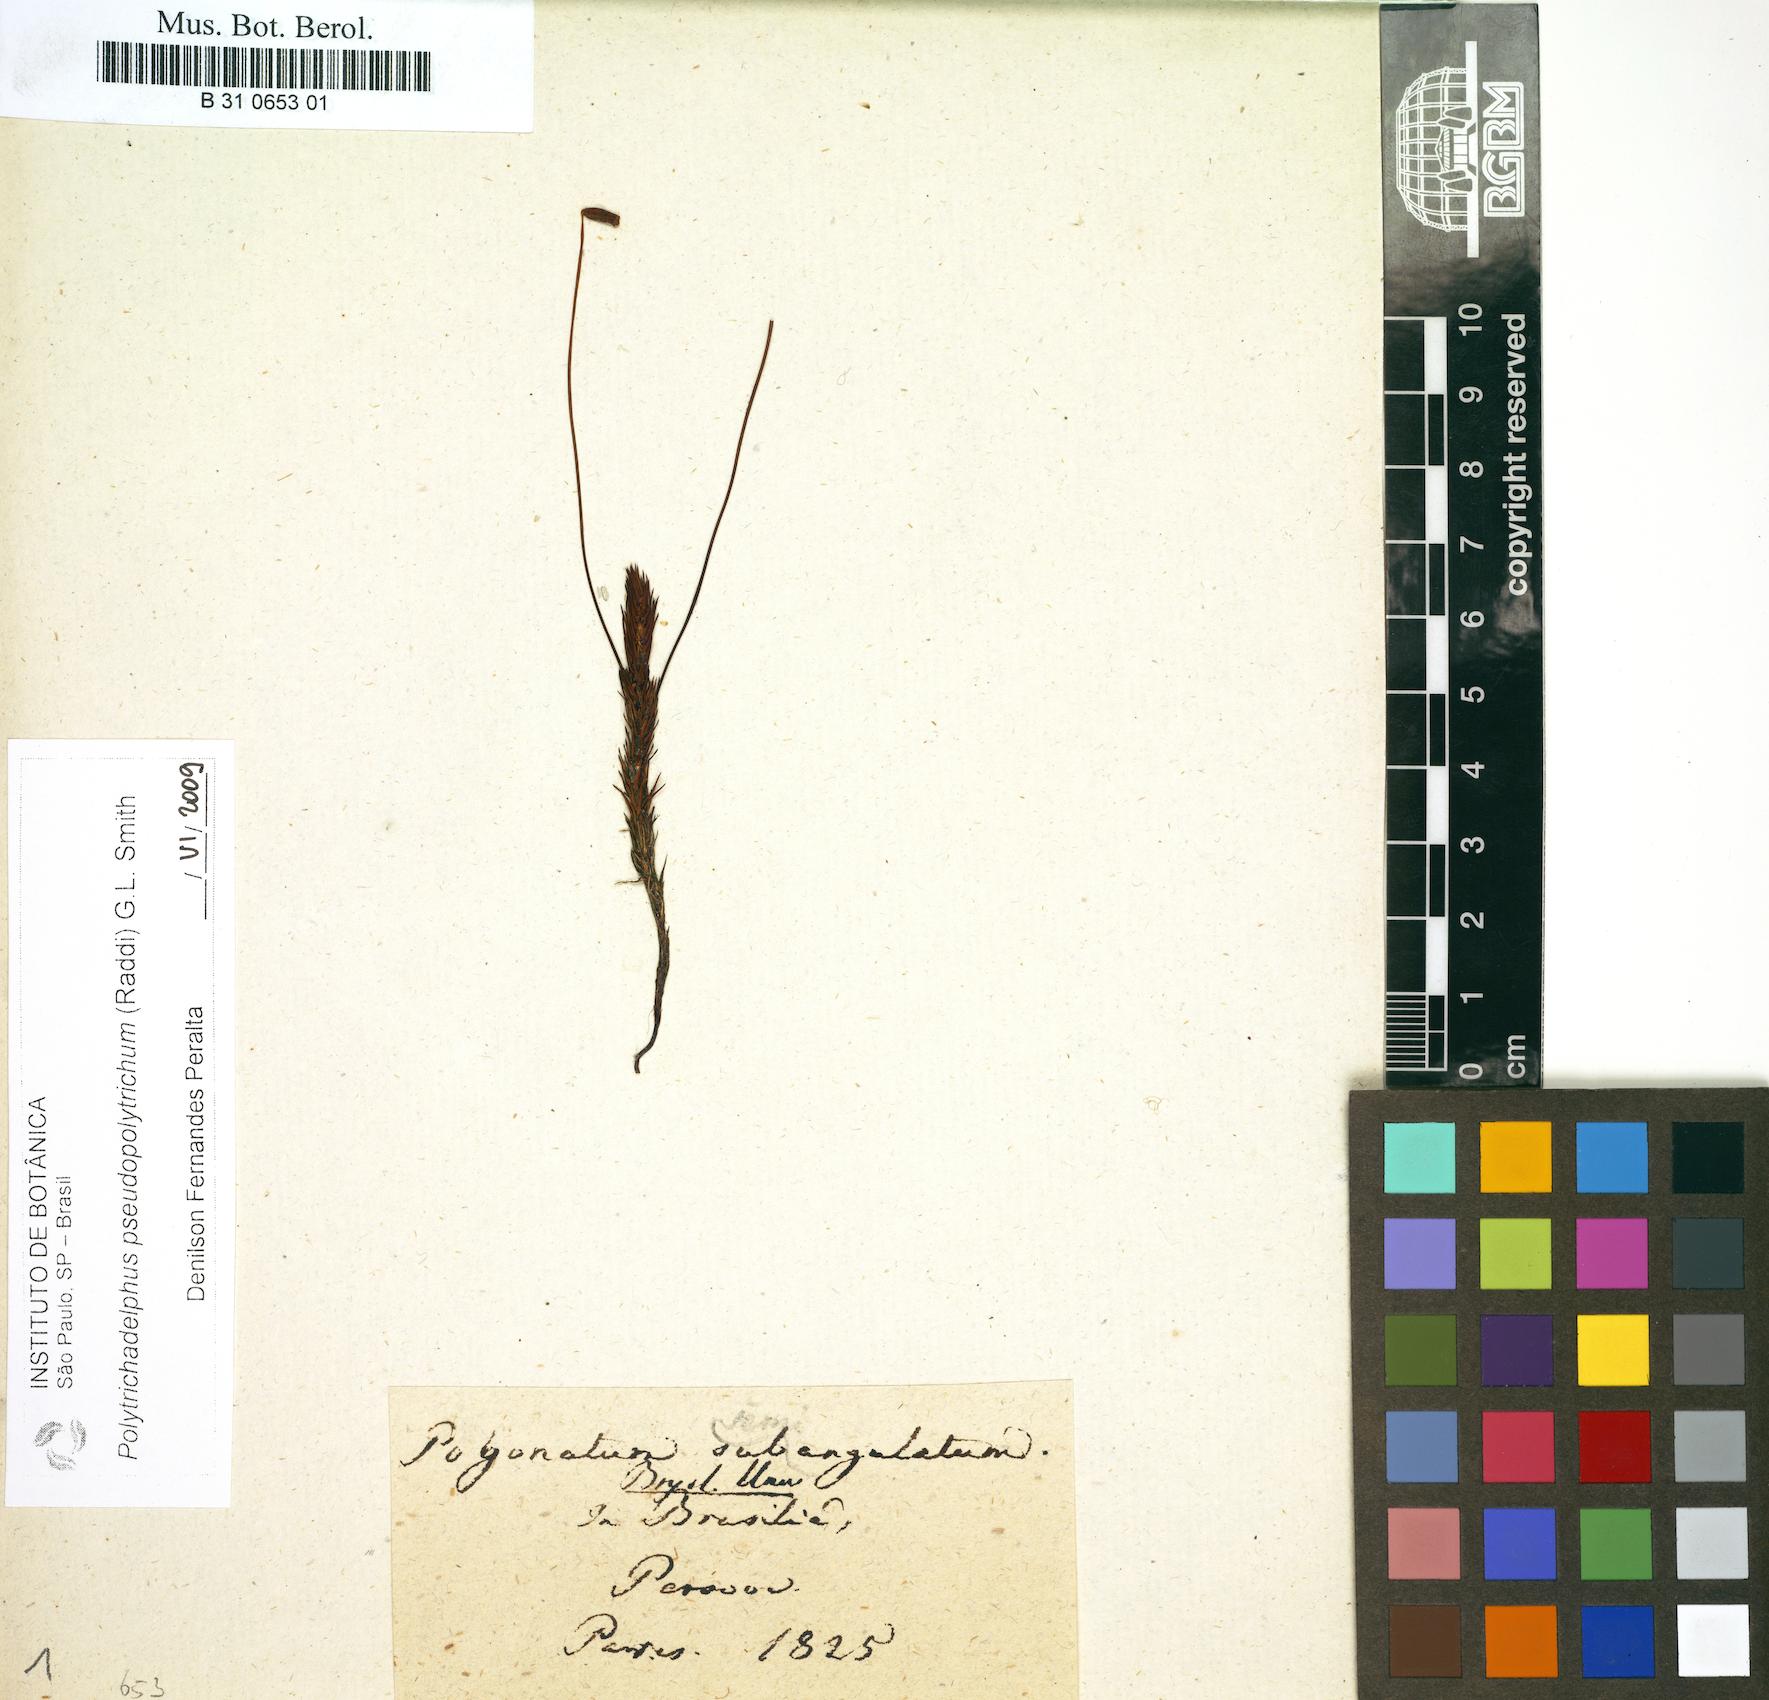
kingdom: Plantae
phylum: Bryophyta
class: Polytrichopsida
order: Polytrichales
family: Polytrichaceae
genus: Polytrichadelphus
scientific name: Polytrichadelphus pseudopolytrichum
